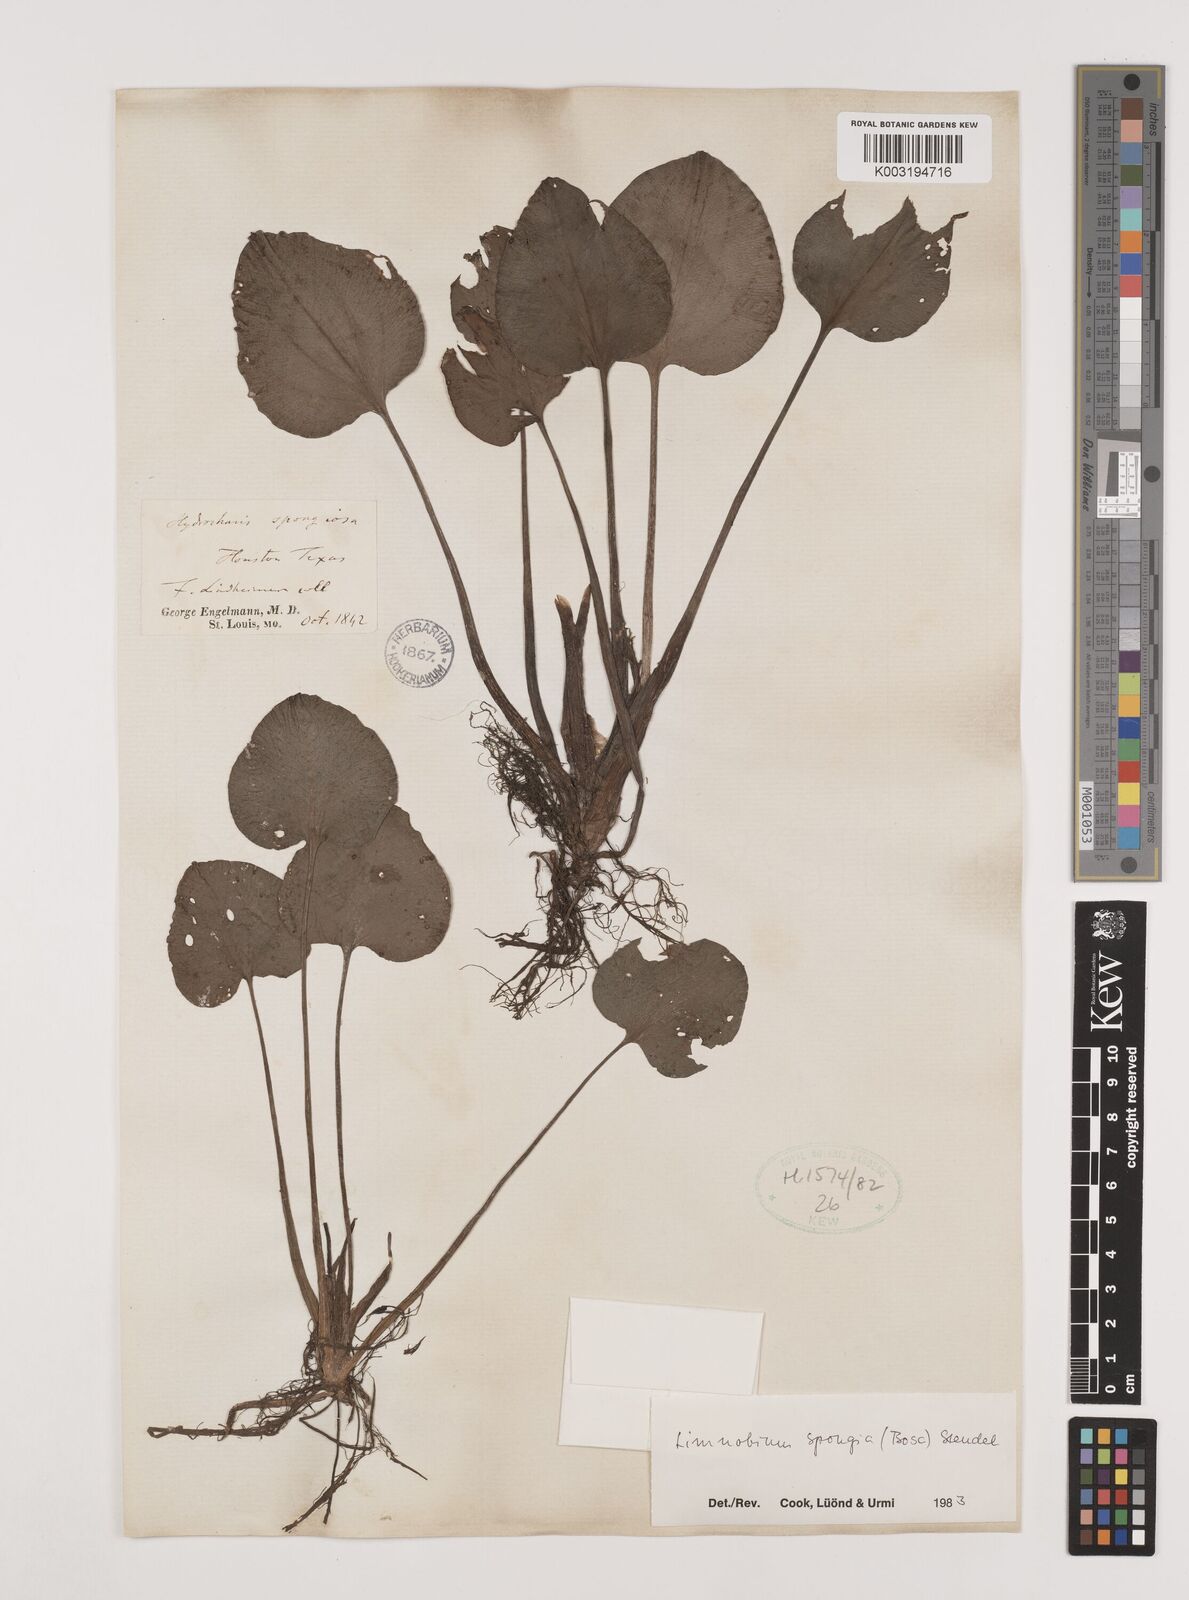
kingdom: Plantae
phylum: Tracheophyta
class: Liliopsida
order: Alismatales
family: Hydrocharitaceae
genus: Hydrocharis
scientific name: Hydrocharis spongia
